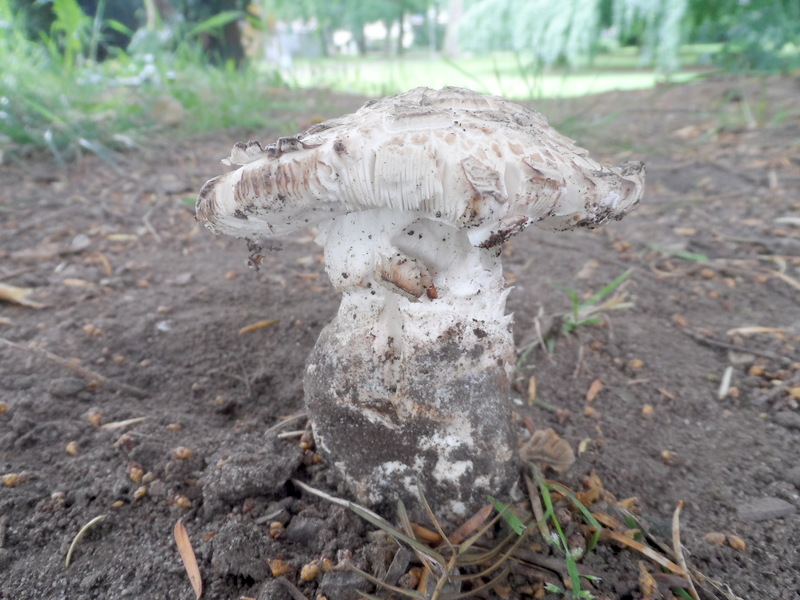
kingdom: Fungi
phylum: Basidiomycota
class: Agaricomycetes
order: Agaricales
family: Amanitaceae
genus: Amanita
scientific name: Amanita strobiliformis
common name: Warted amanita
